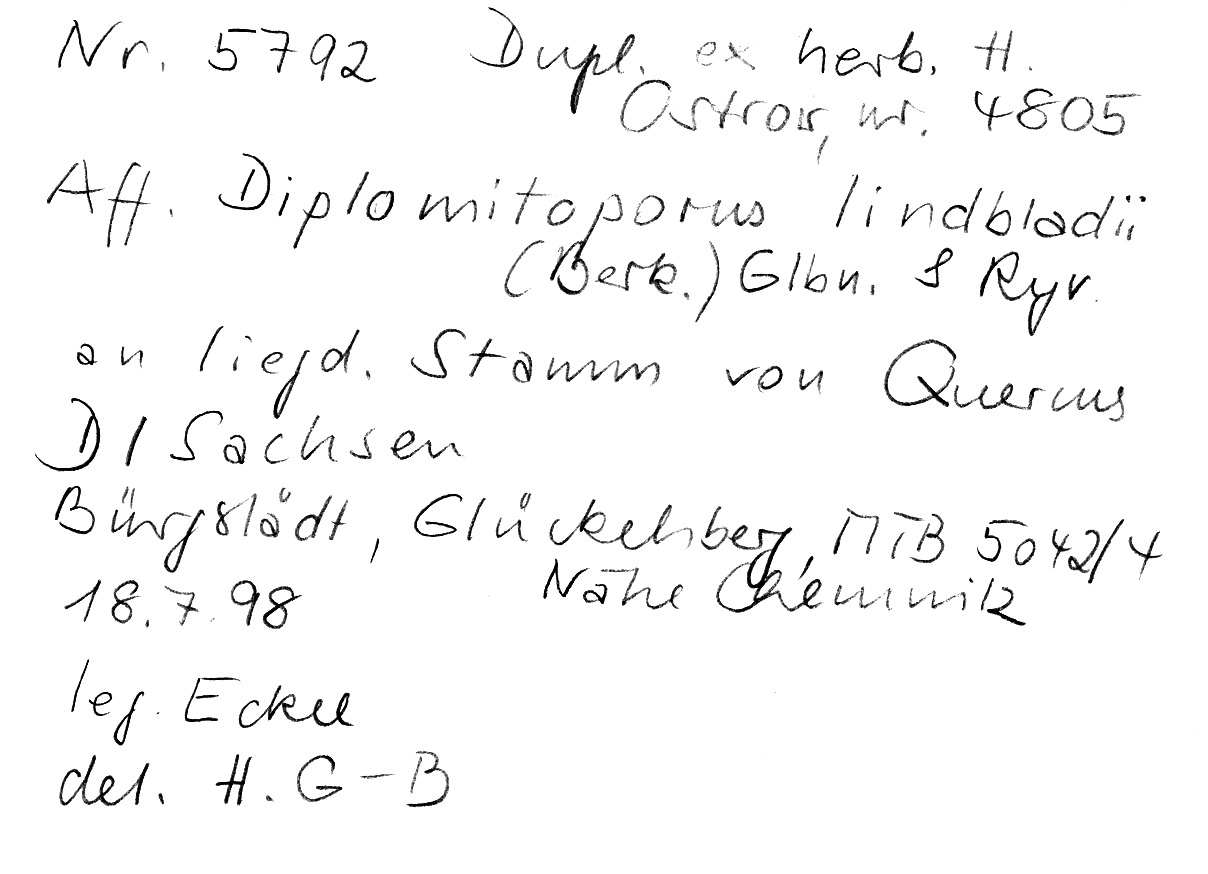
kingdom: Plantae
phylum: Tracheophyta
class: Magnoliopsida
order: Fagales
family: Fagaceae
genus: Quercus
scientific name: Quercus
